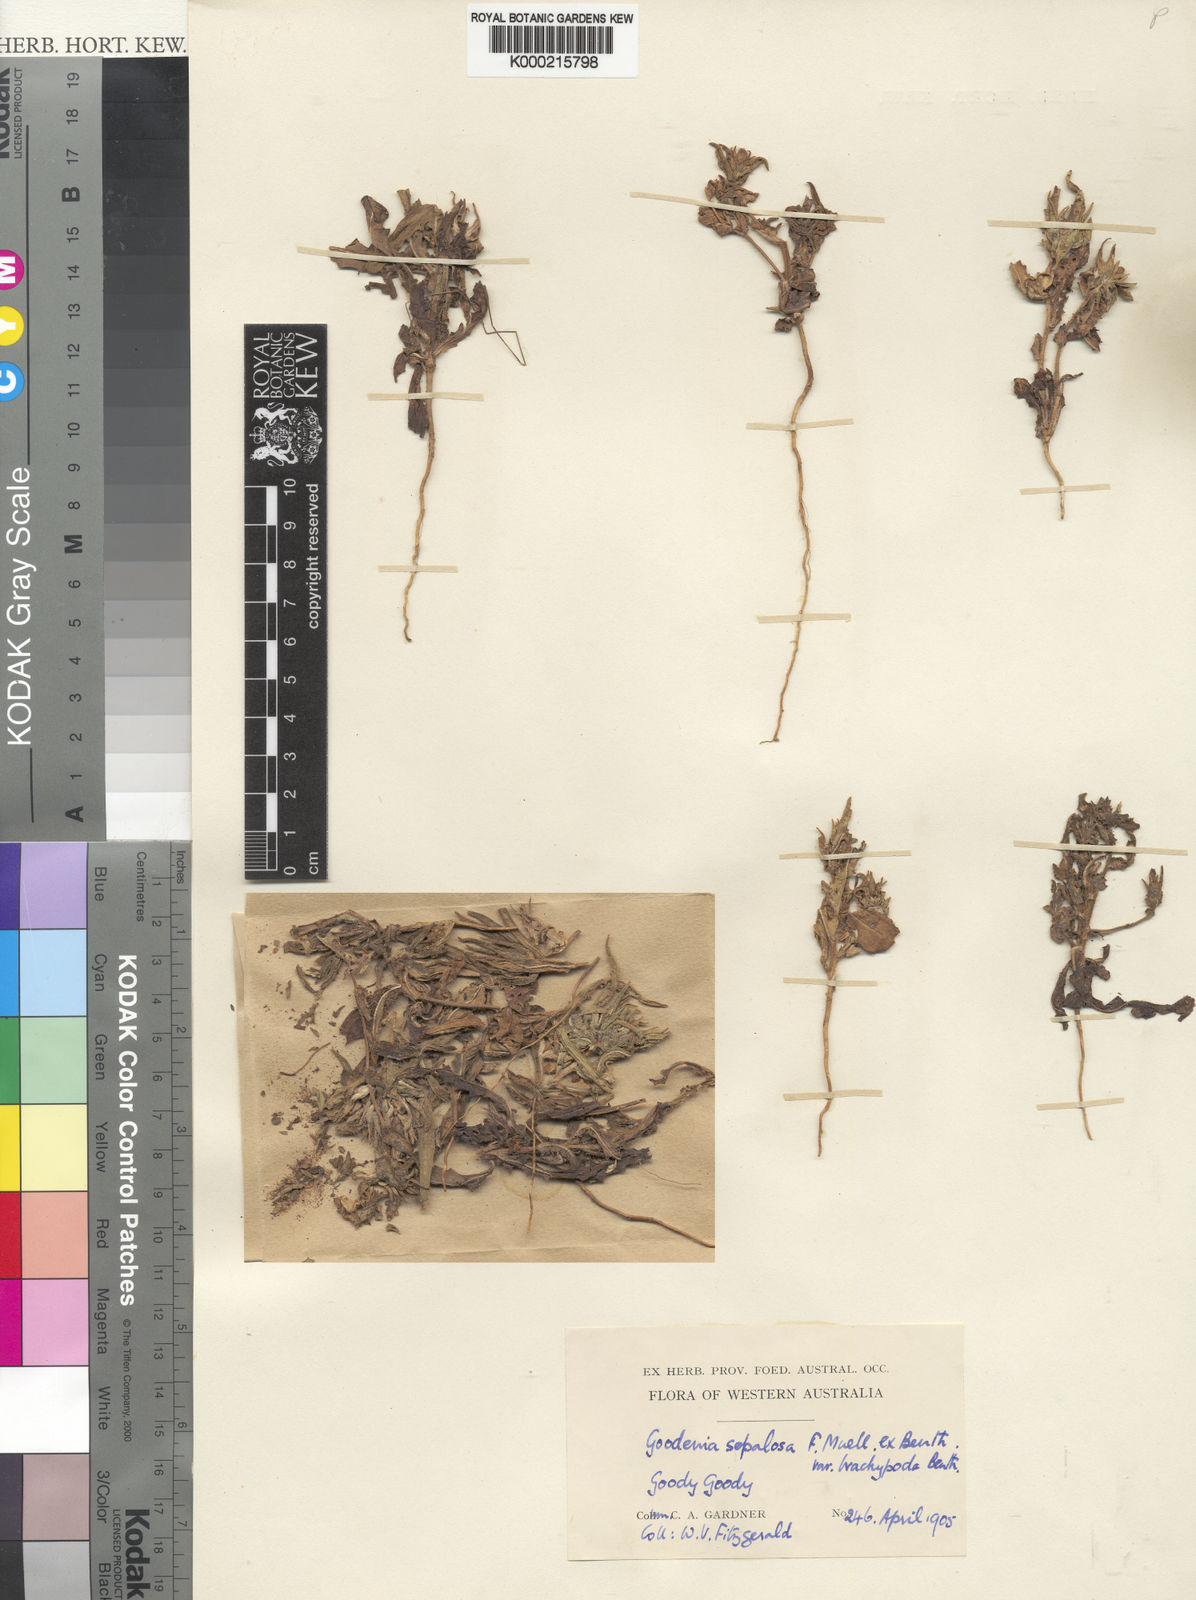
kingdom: Plantae
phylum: Tracheophyta
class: Magnoliopsida
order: Asterales
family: Goodeniaceae
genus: Goodenia
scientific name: Goodenia brachypoda
